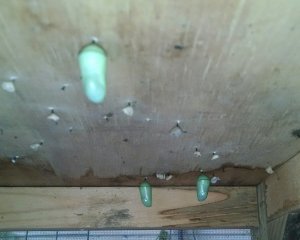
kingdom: Animalia
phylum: Arthropoda
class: Insecta
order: Lepidoptera
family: Nymphalidae
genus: Danaus
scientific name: Danaus plexippus
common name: Monarch
